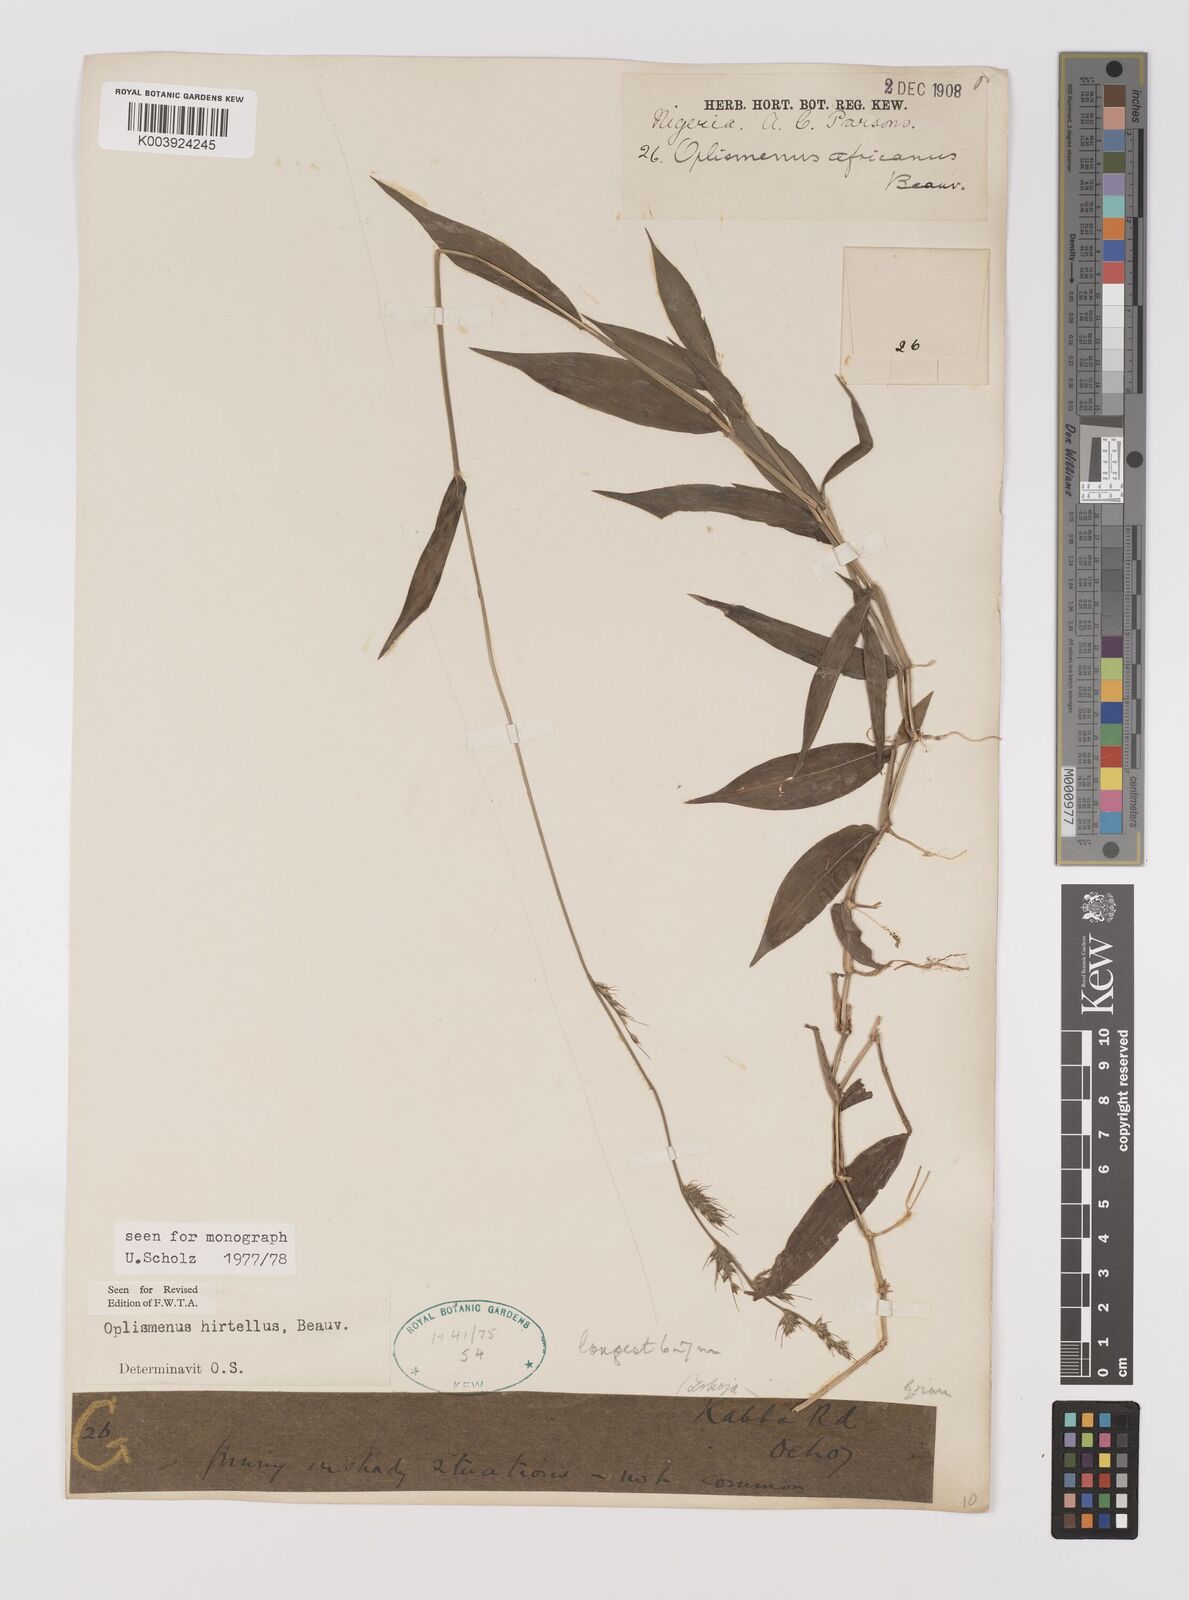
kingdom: Plantae
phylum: Tracheophyta
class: Liliopsida
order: Poales
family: Poaceae
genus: Oplismenus
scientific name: Oplismenus hirtellus
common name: Basketgrass
